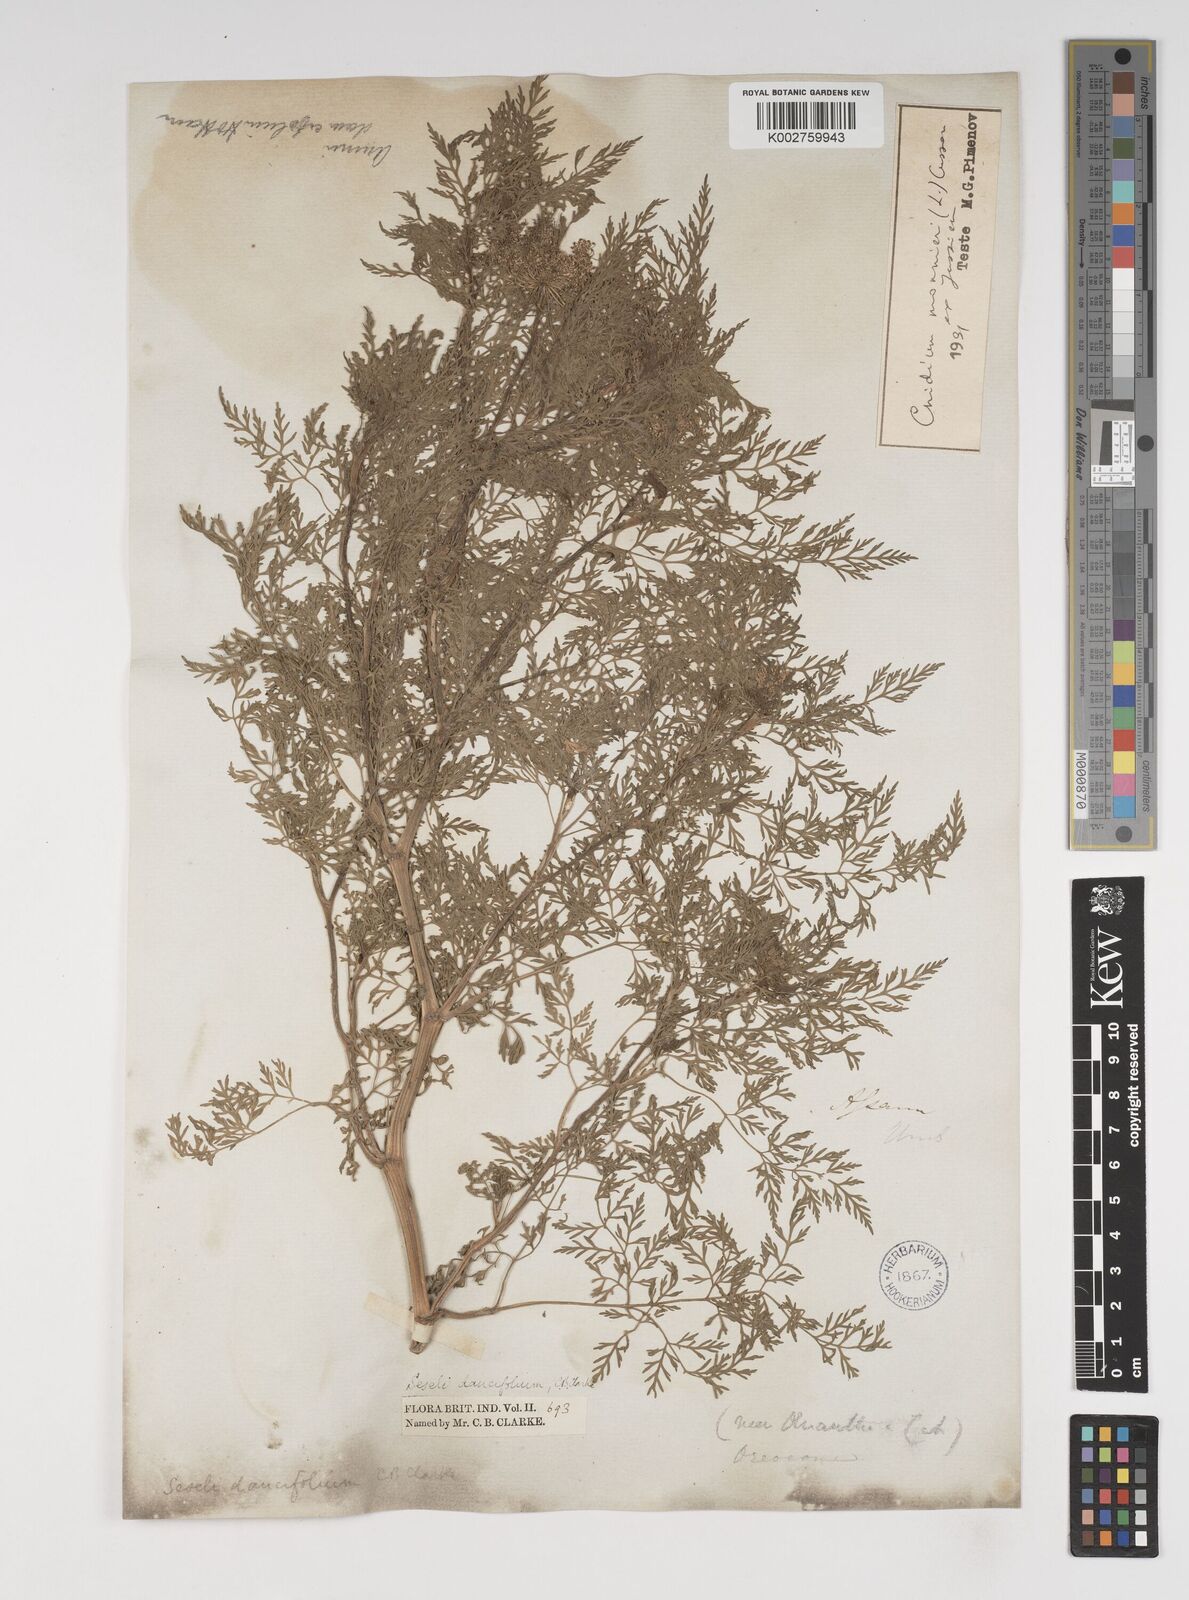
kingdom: Plantae
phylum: Tracheophyta
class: Magnoliopsida
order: Apiales
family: Apiaceae
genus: Cnidium
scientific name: Cnidium monnieri
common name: Monnier's snowparsley
